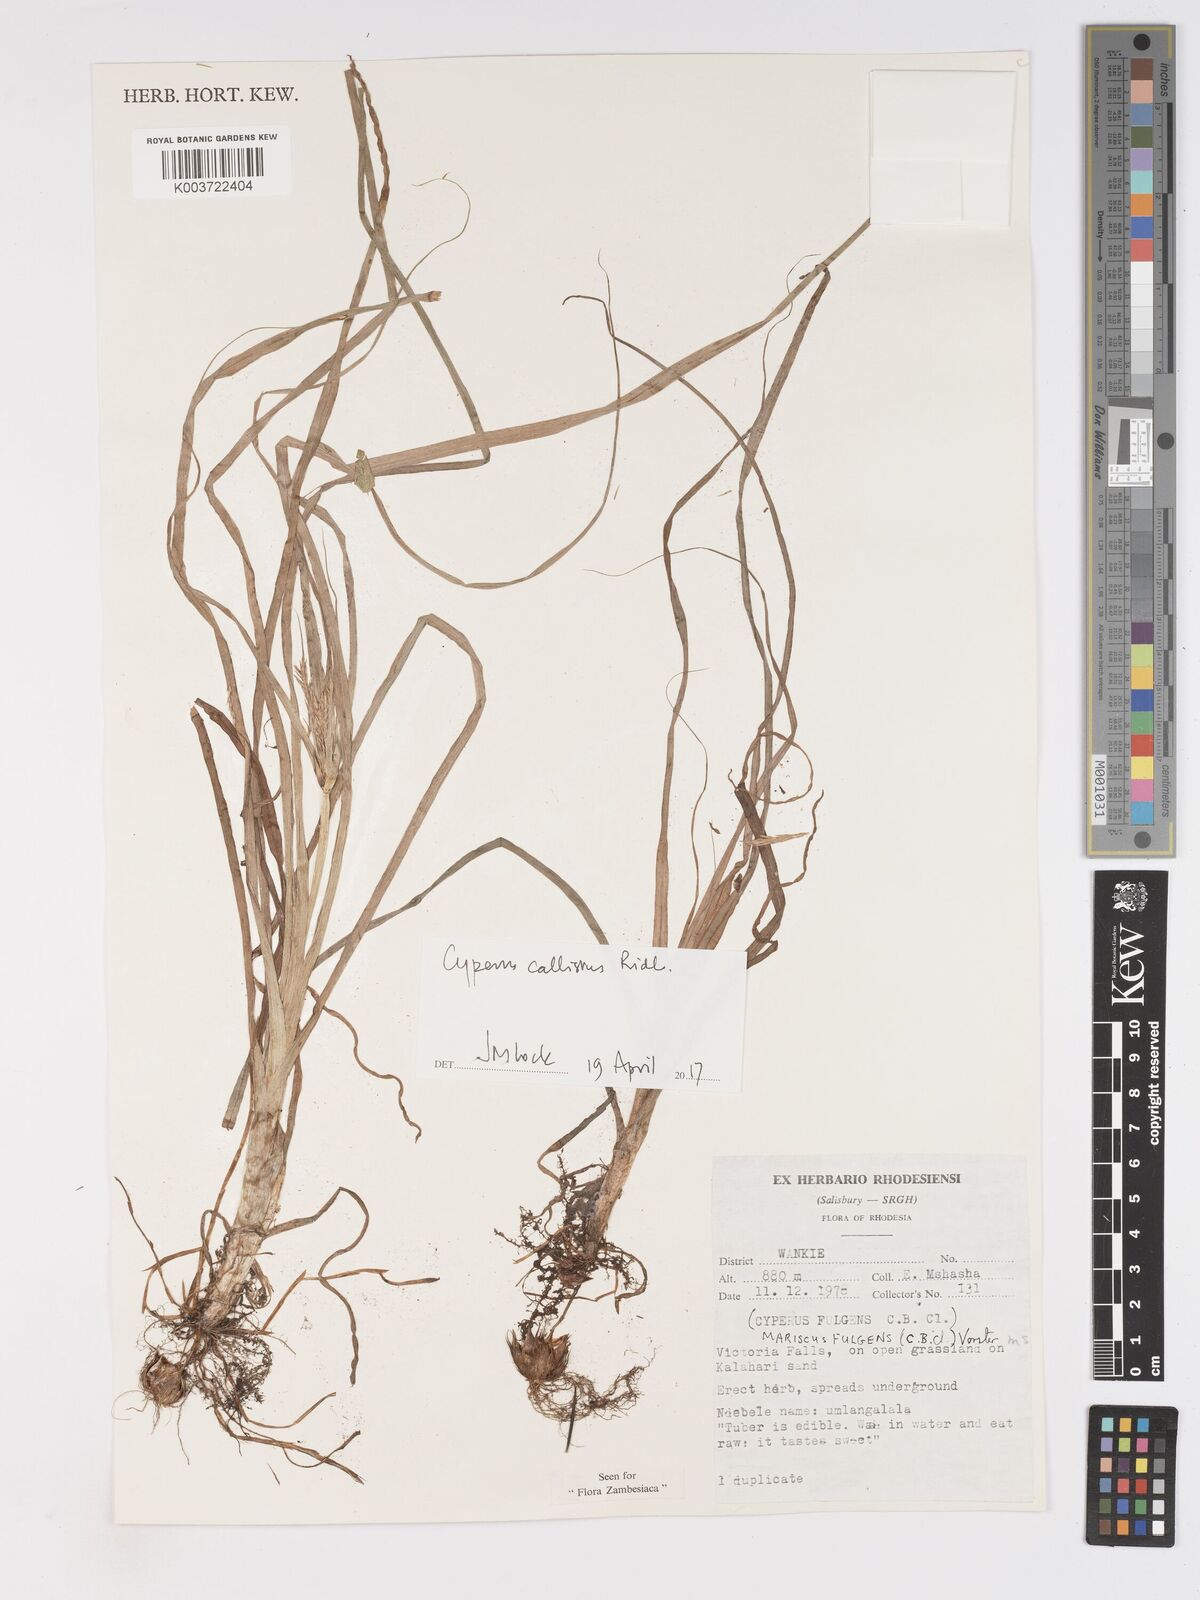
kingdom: Plantae
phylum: Tracheophyta
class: Liliopsida
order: Poales
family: Cyperaceae
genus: Cyperus
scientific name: Cyperus callistus
